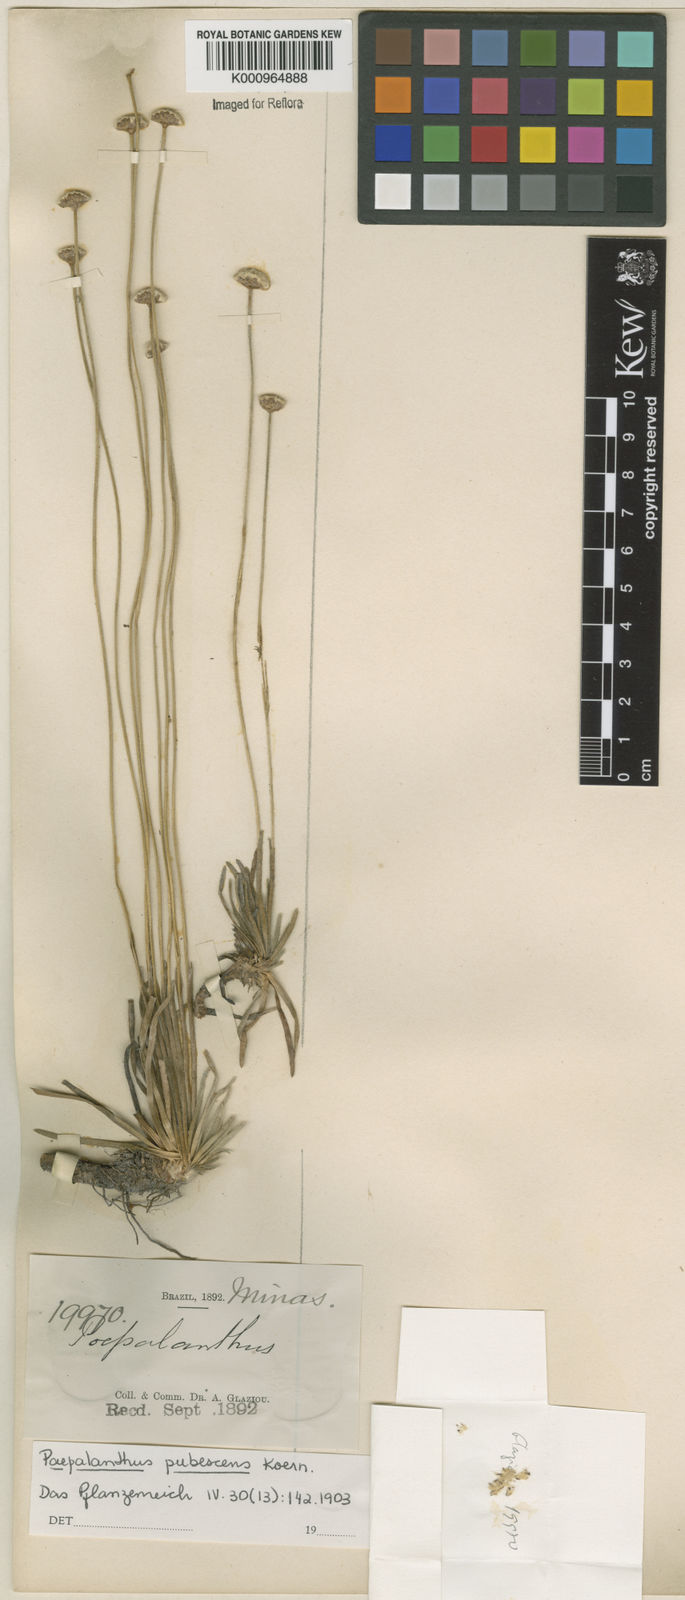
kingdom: Plantae
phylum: Tracheophyta
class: Liliopsida
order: Poales
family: Eriocaulaceae
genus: Paepalanthus
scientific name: Paepalanthus
